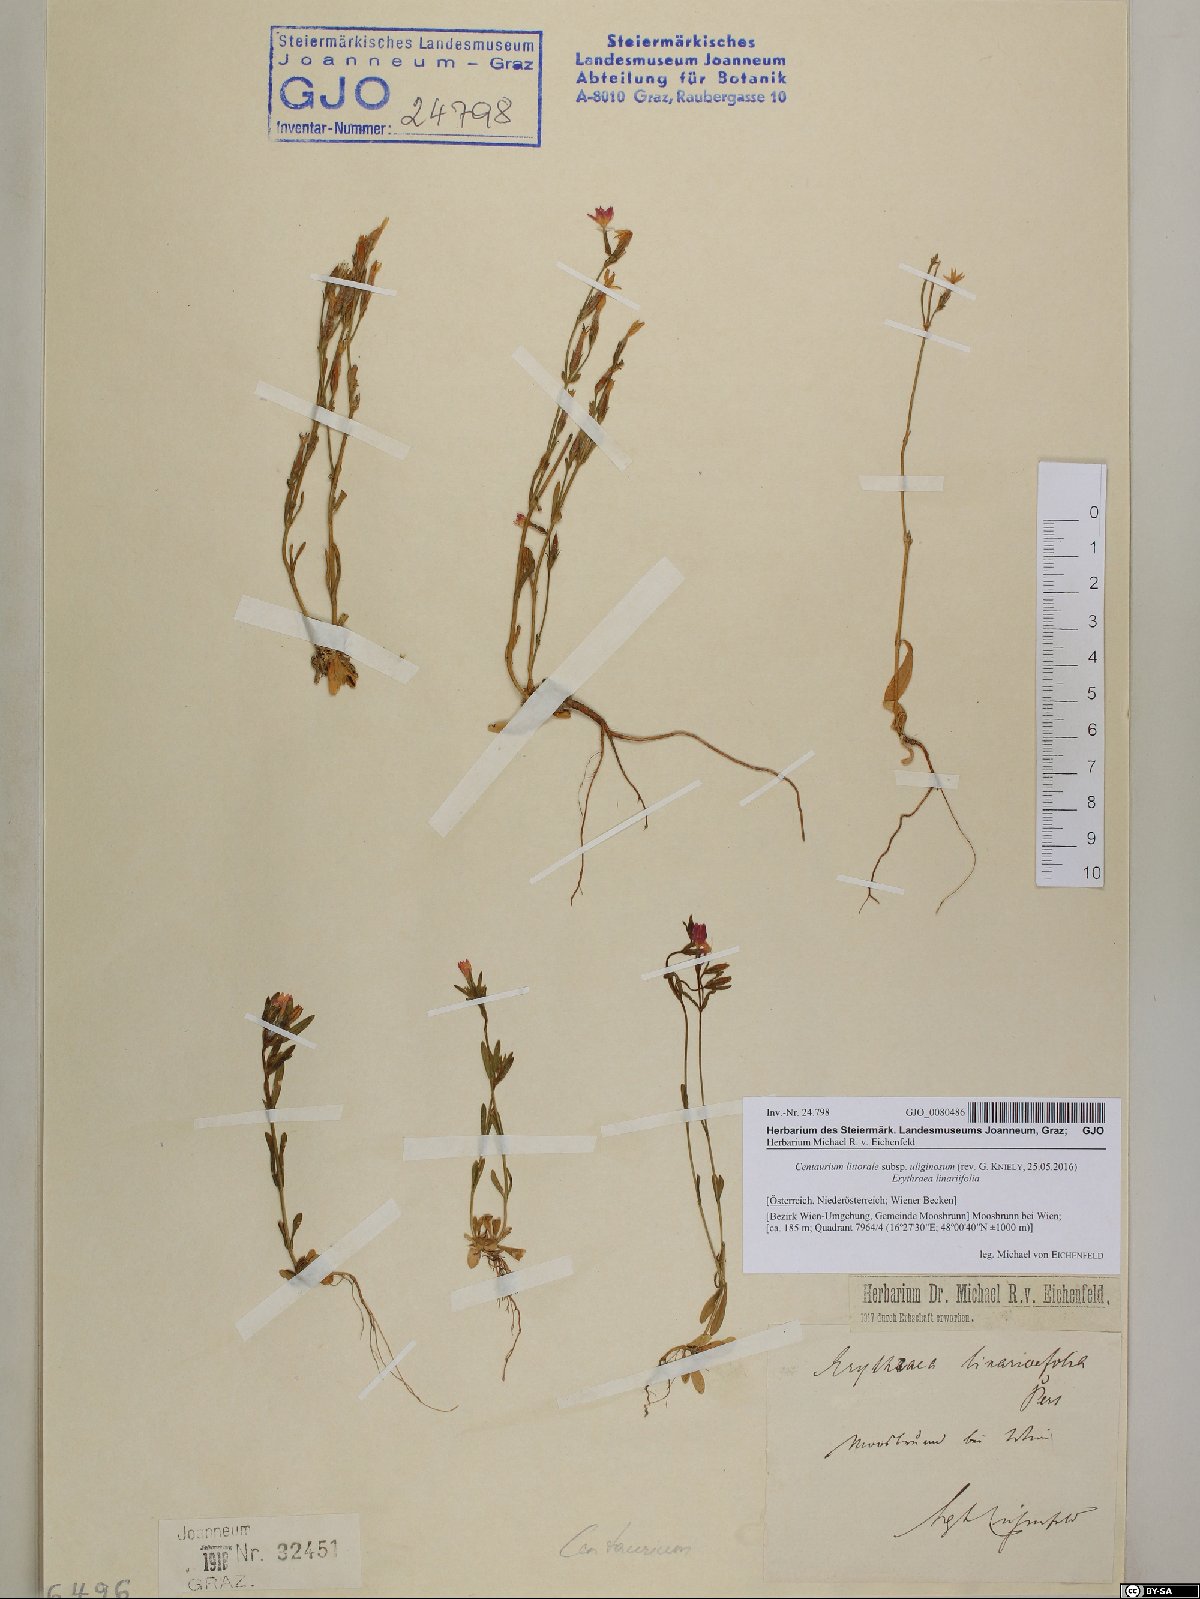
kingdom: Plantae
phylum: Tracheophyta
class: Magnoliopsida
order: Gentianales
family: Gentianaceae
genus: Centaurium
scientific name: Centaurium littorale
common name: Seaside centaury
